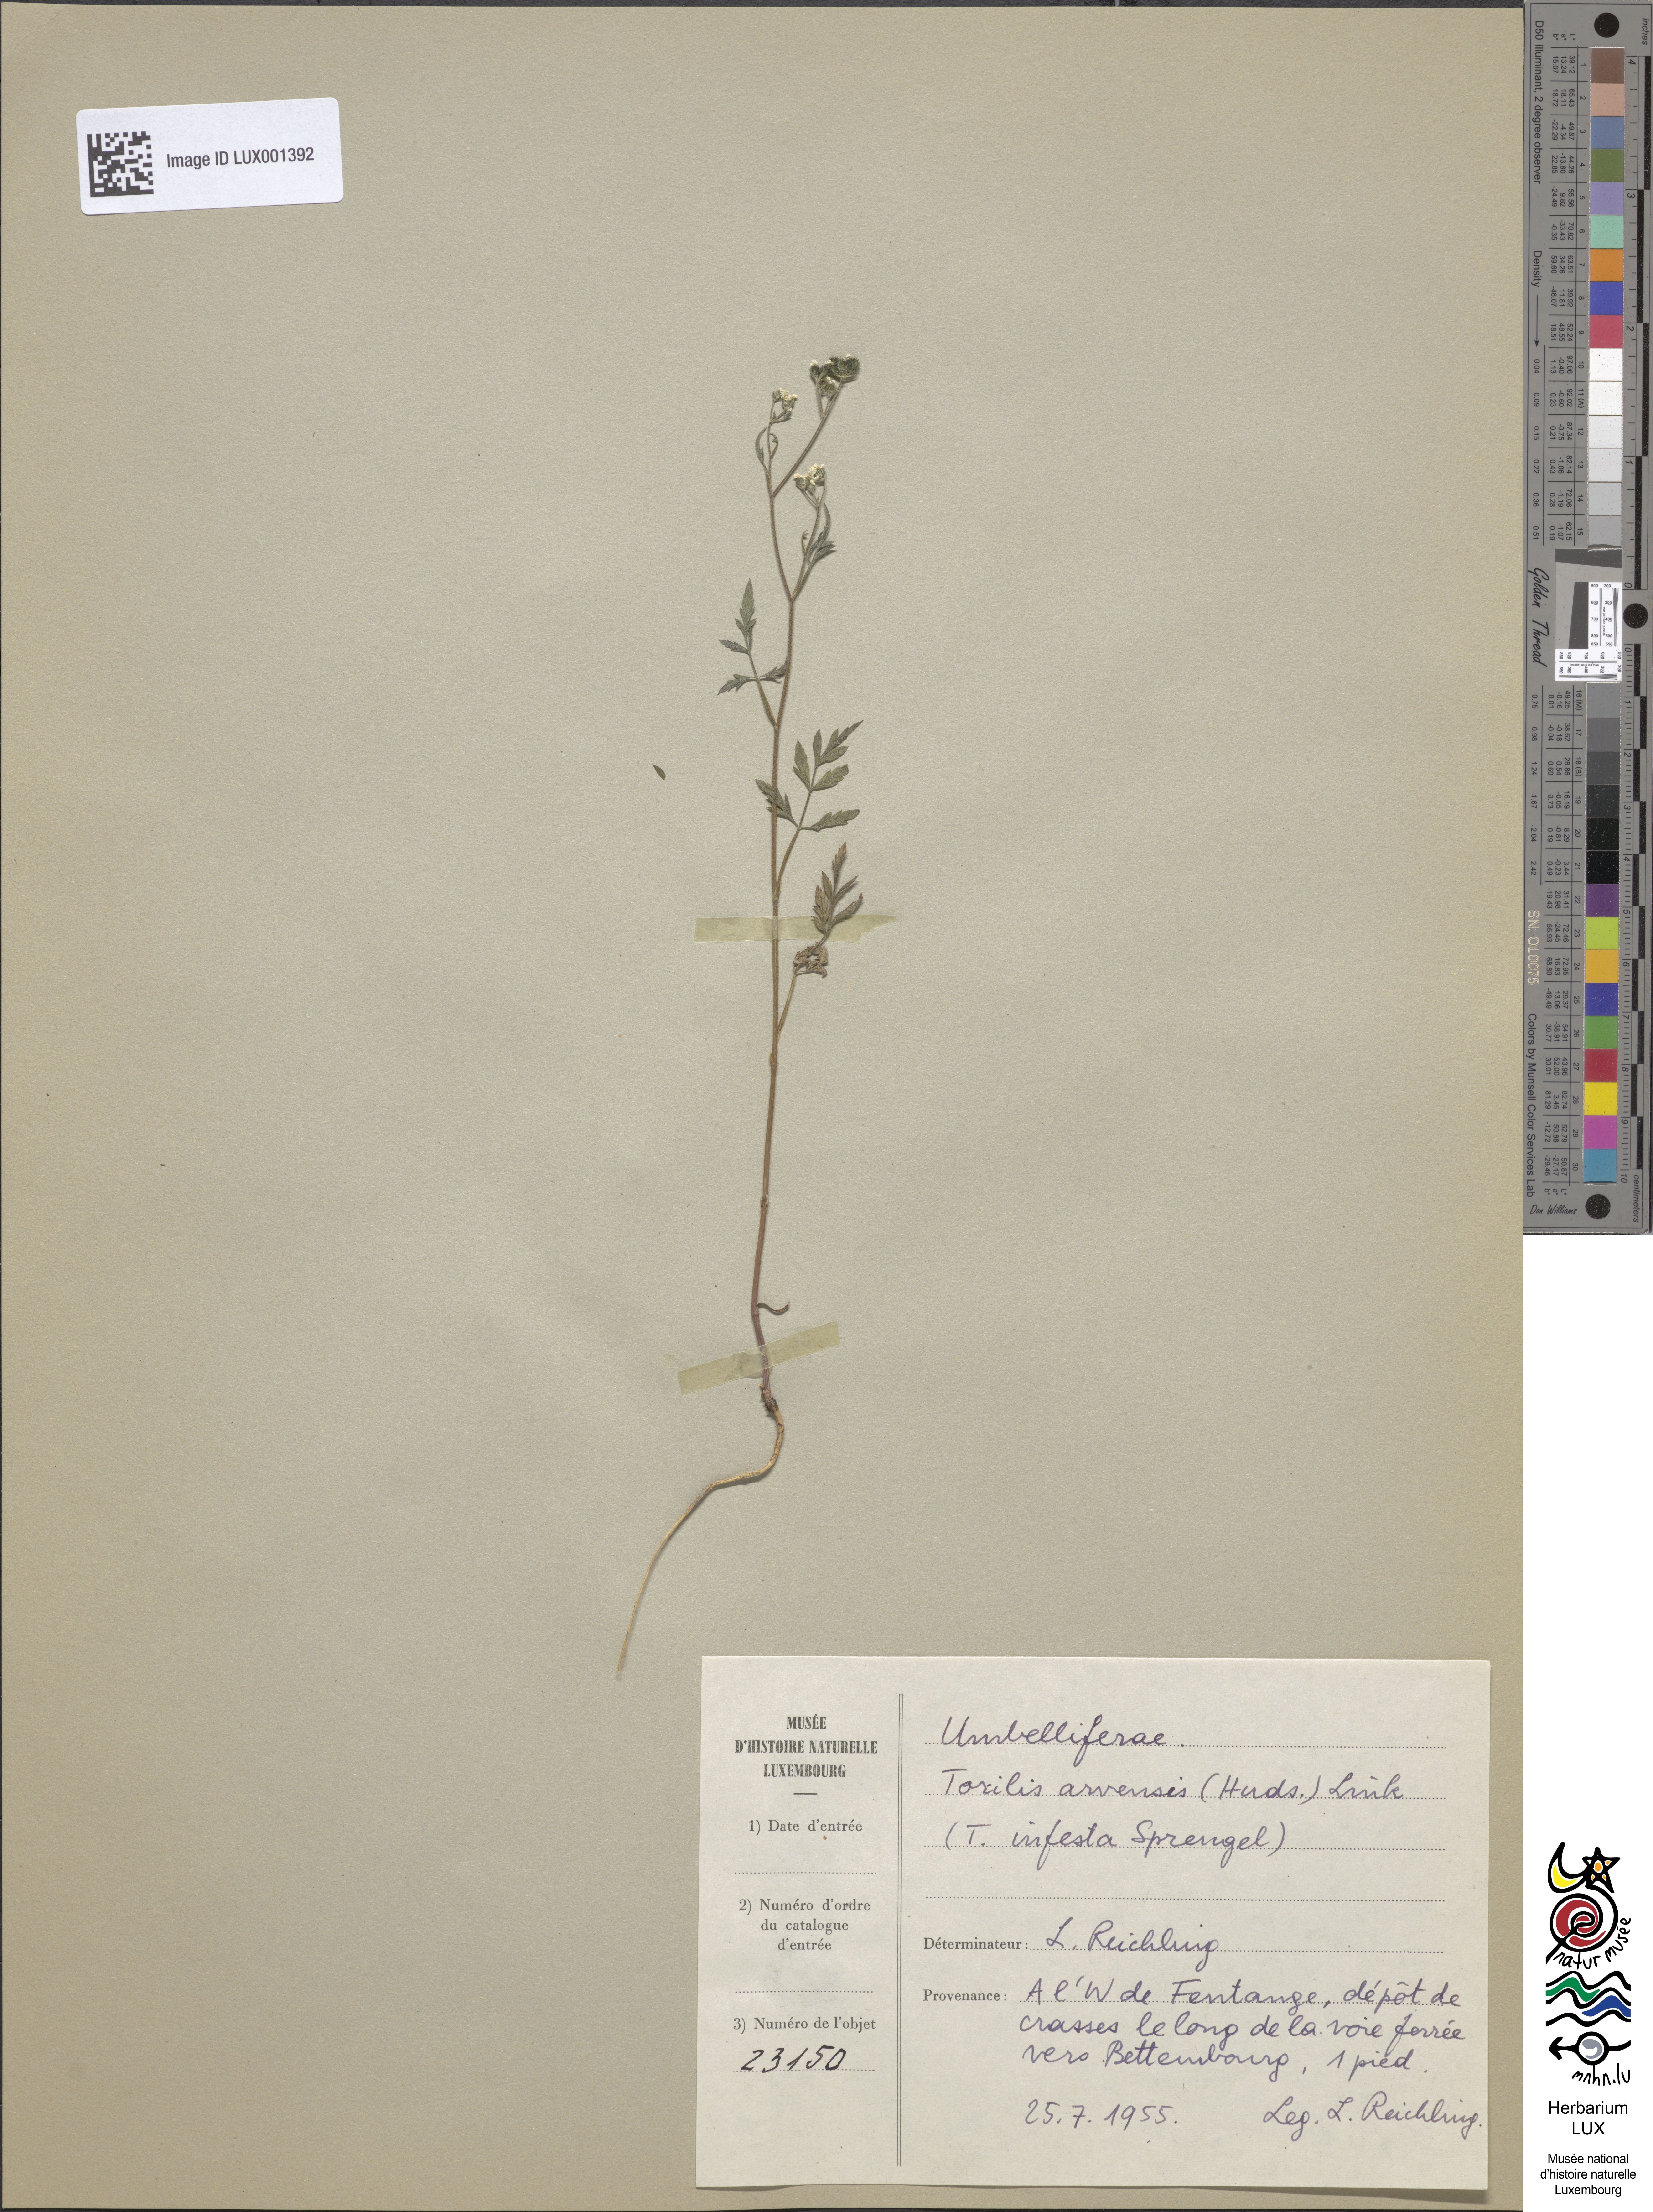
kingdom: Plantae
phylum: Tracheophyta
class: Magnoliopsida
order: Apiales
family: Apiaceae
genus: Torilis
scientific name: Torilis arvensis
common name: Spreading hedge-parsley
